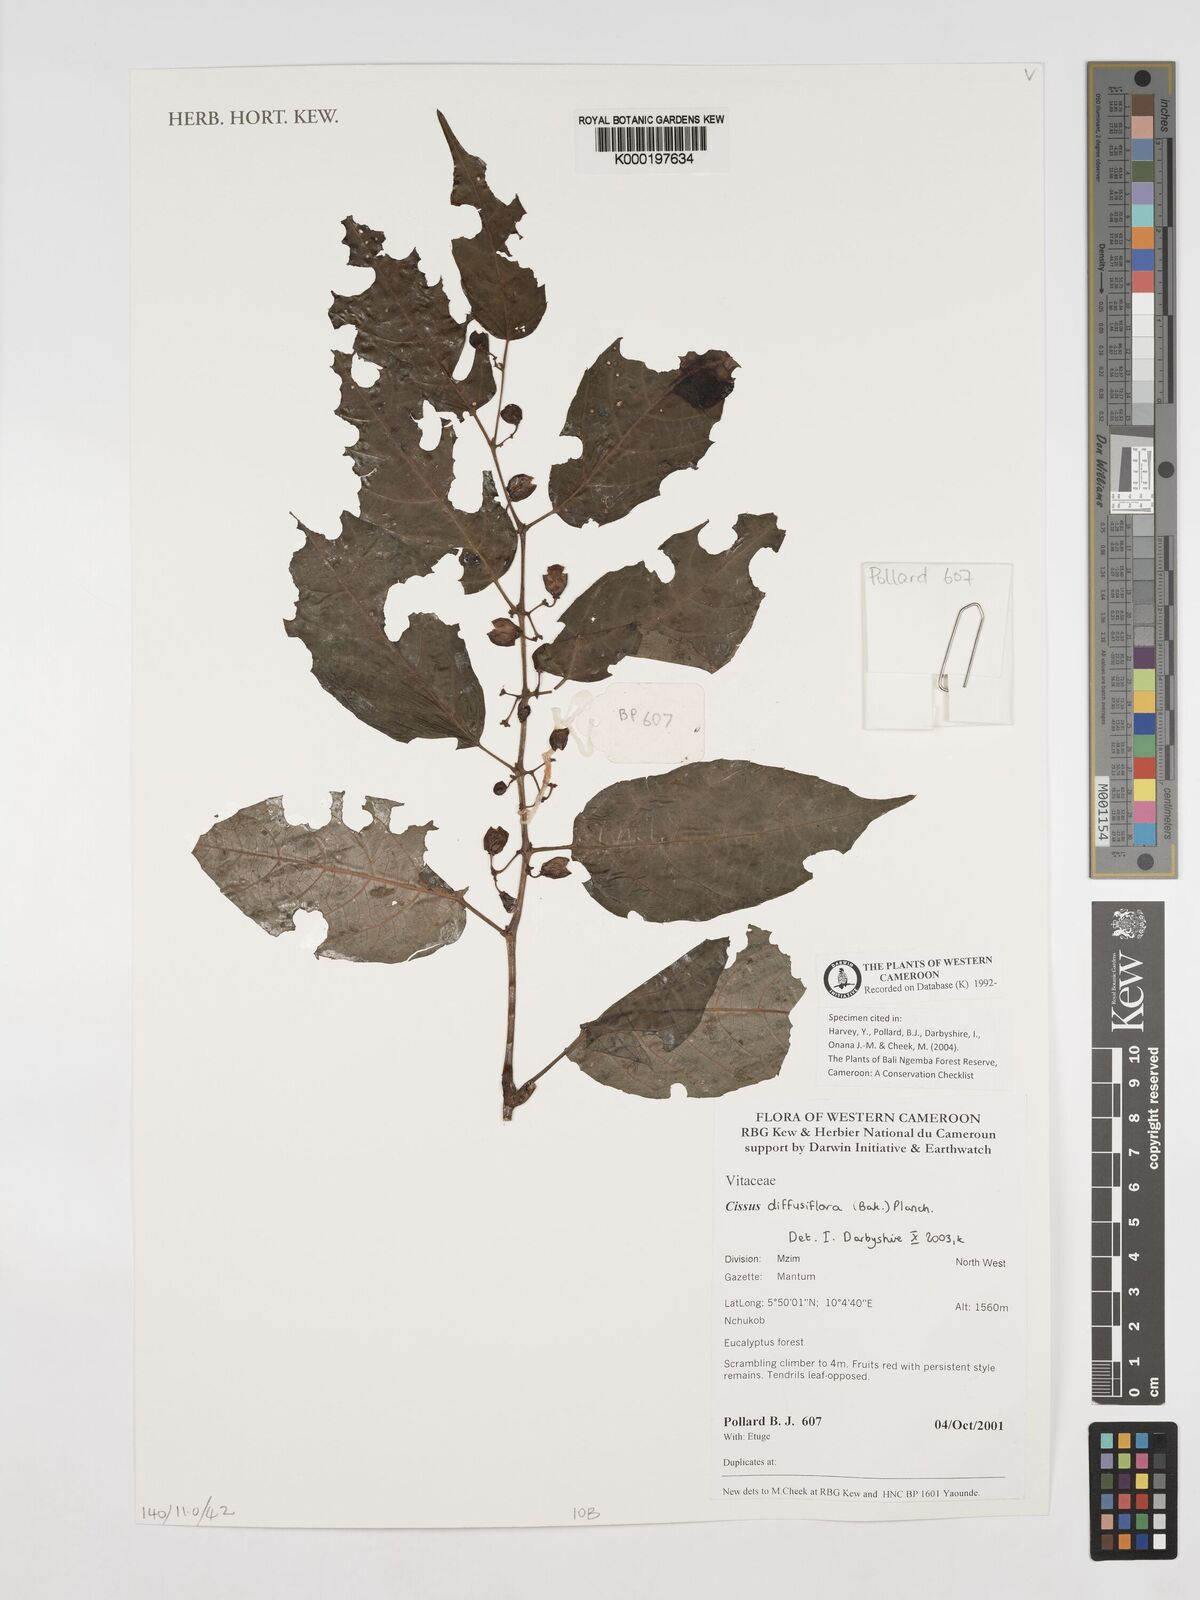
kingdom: Plantae
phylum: Tracheophyta
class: Magnoliopsida
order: Vitales
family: Vitaceae
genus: Cissus
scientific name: Cissus diffusiflora
